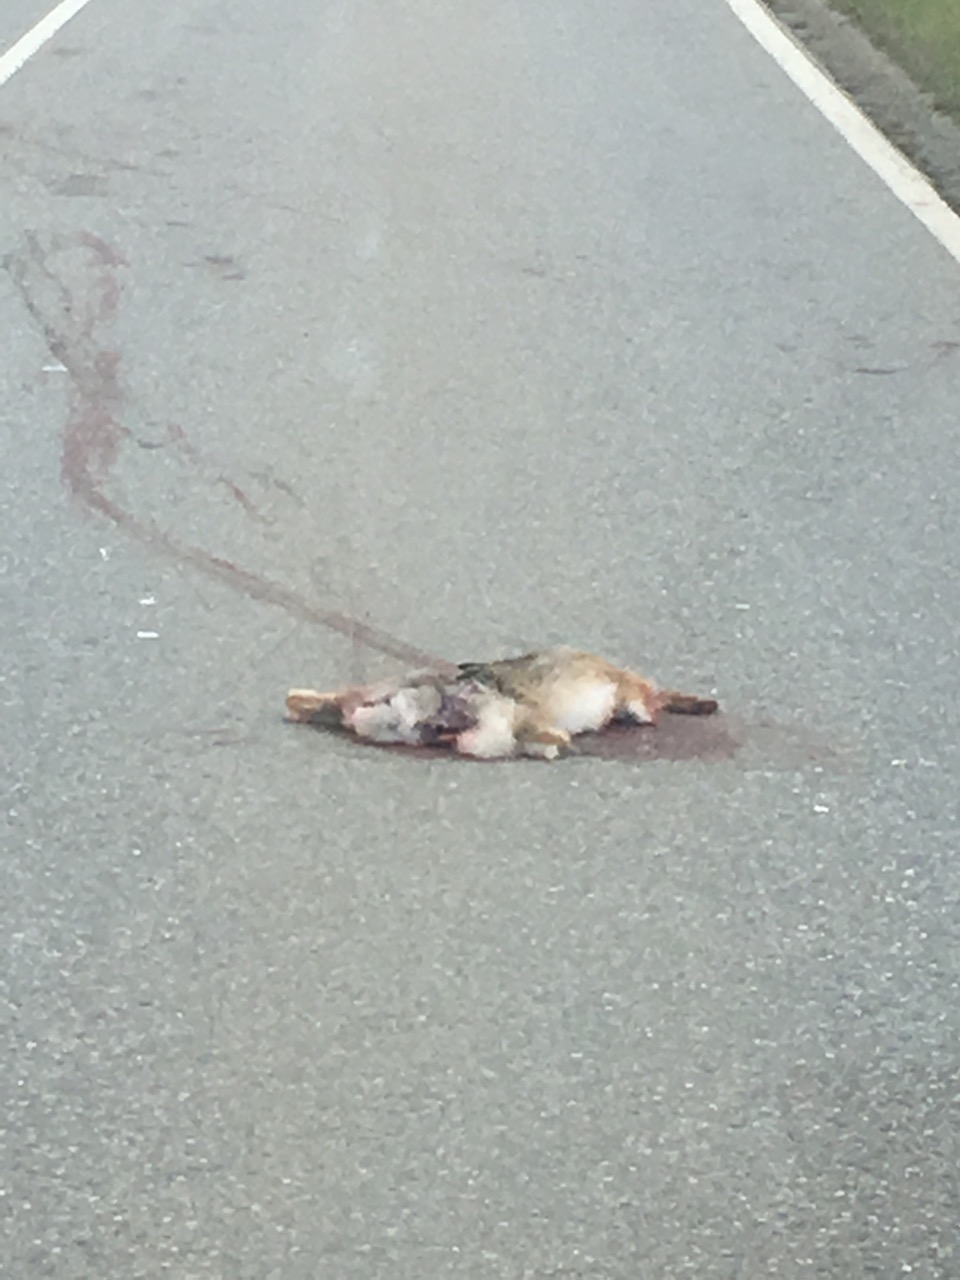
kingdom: Animalia
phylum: Chordata
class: Mammalia
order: Lagomorpha
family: Leporidae
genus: Lepus
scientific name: Lepus europaeus
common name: European hare
